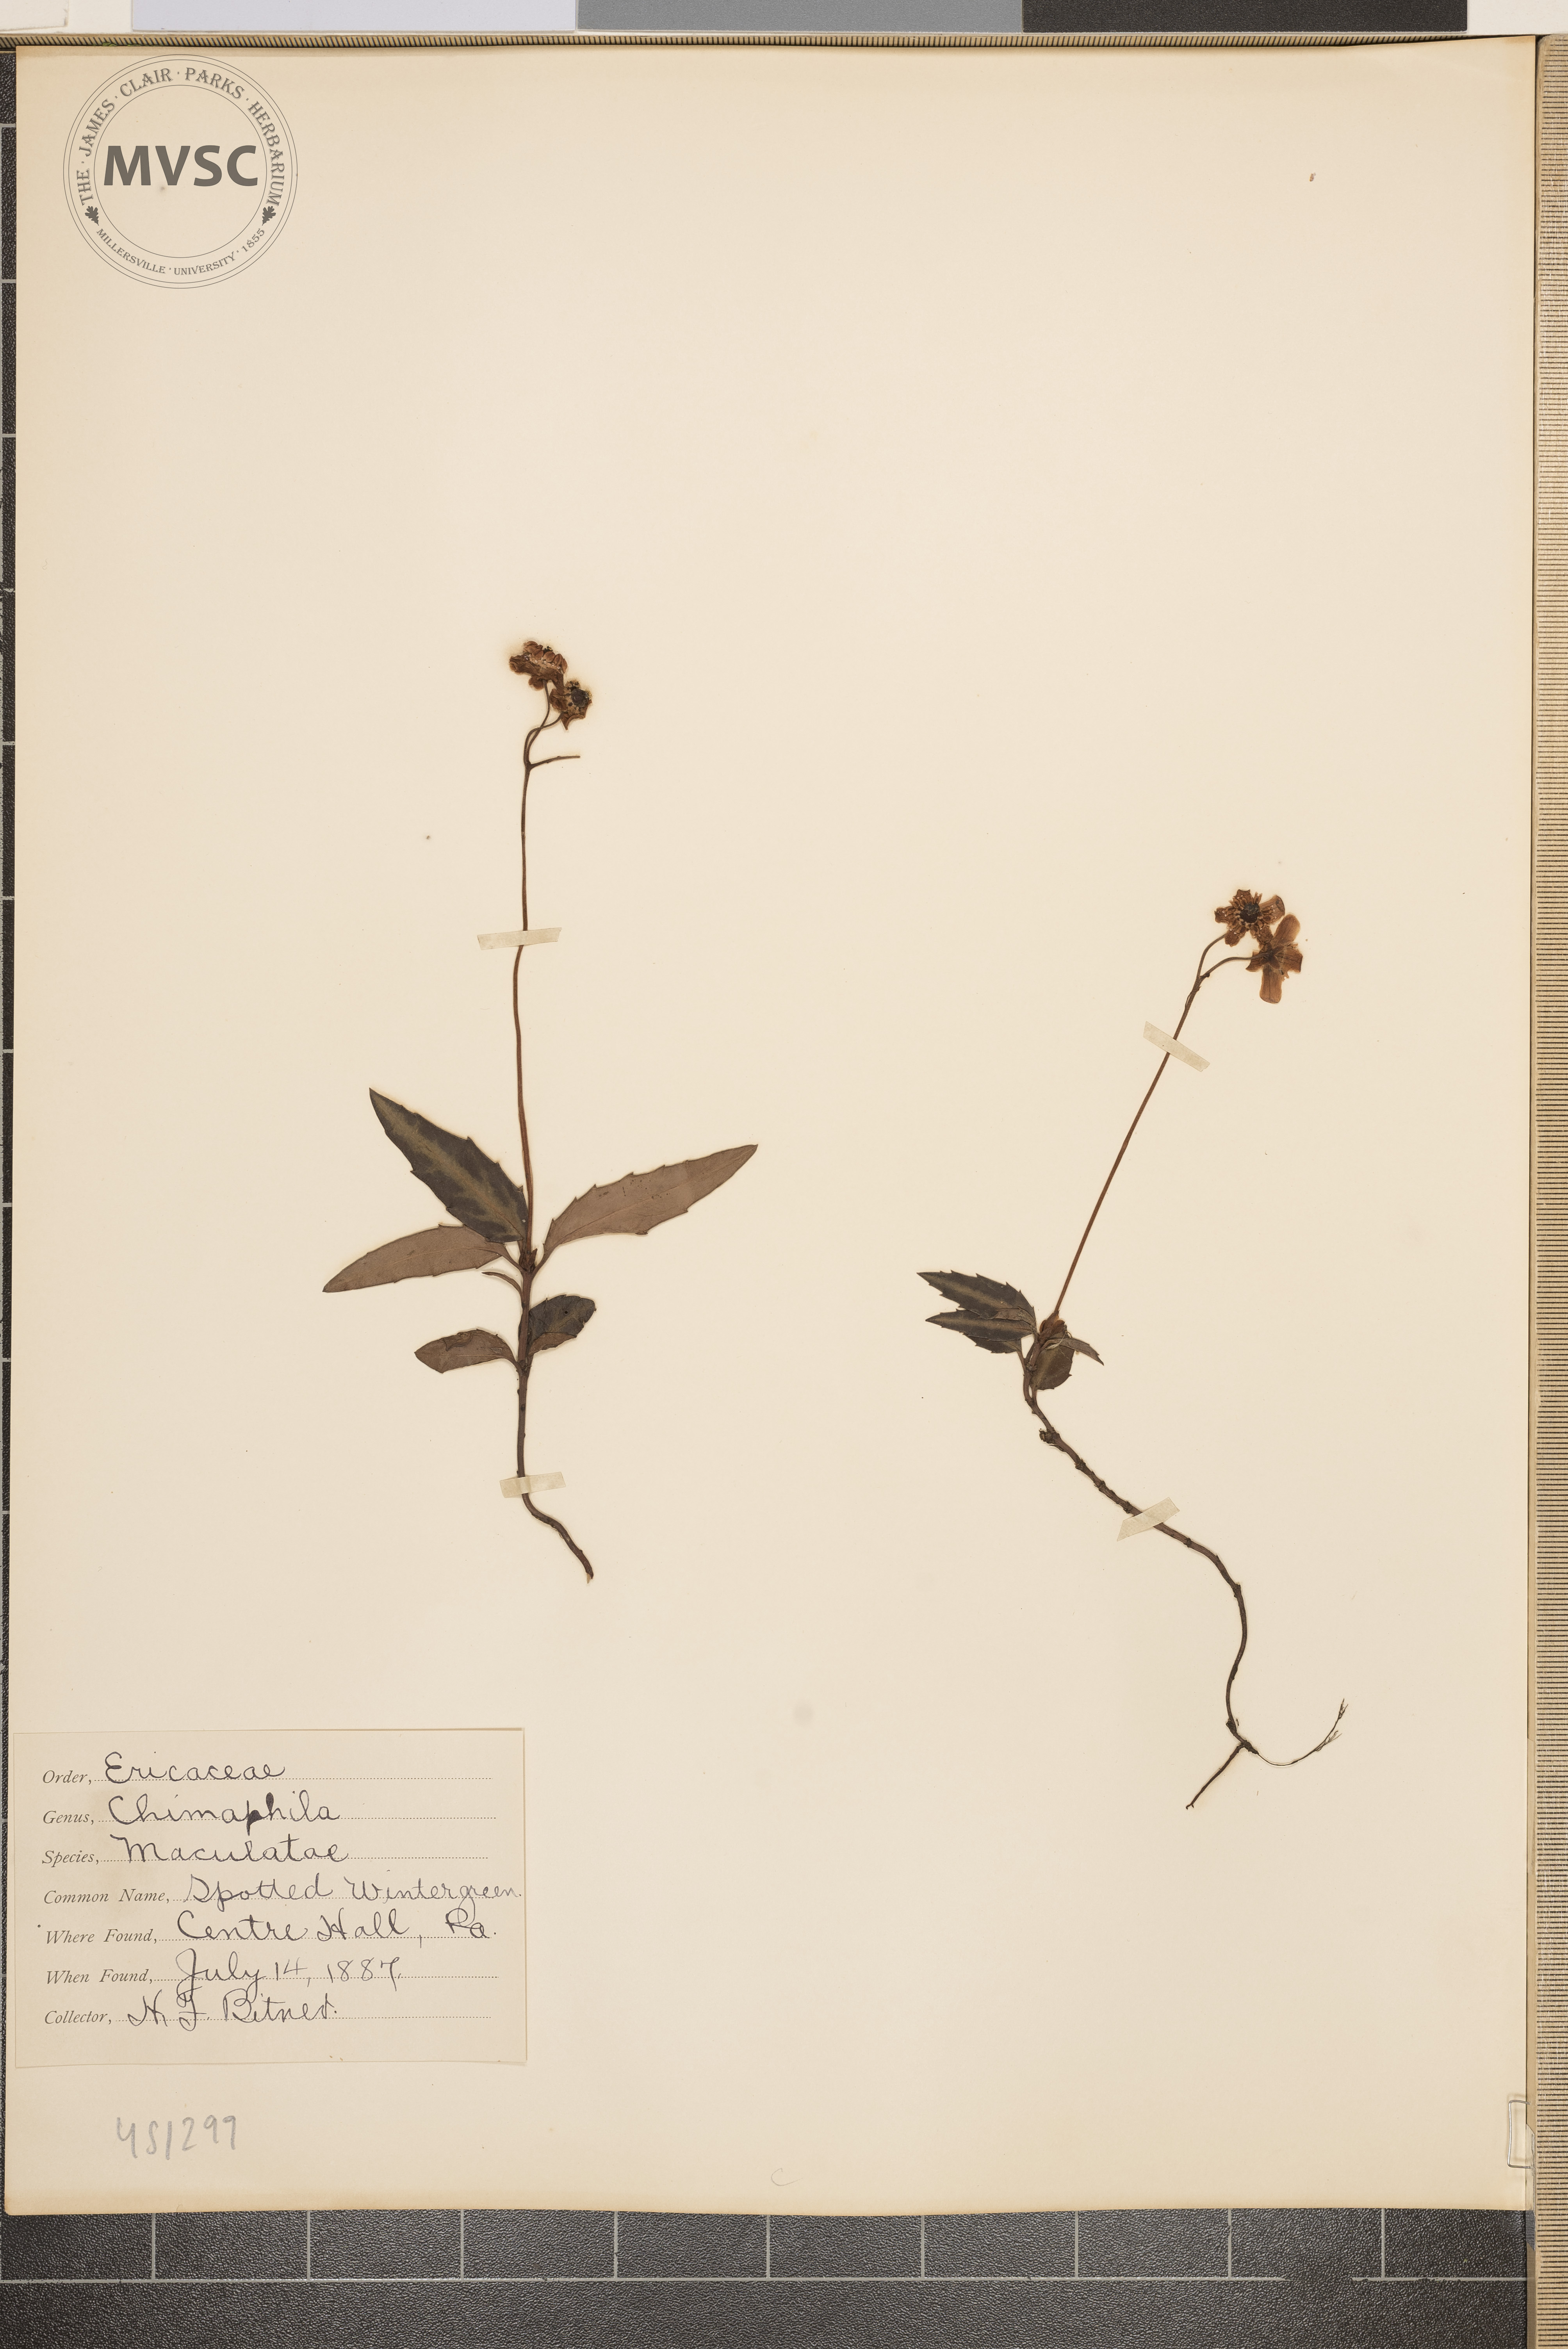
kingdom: Plantae
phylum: Tracheophyta
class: Magnoliopsida
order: Ericales
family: Ericaceae
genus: Chimaphila
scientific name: Chimaphila maculata
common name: Spotted wintergreen
